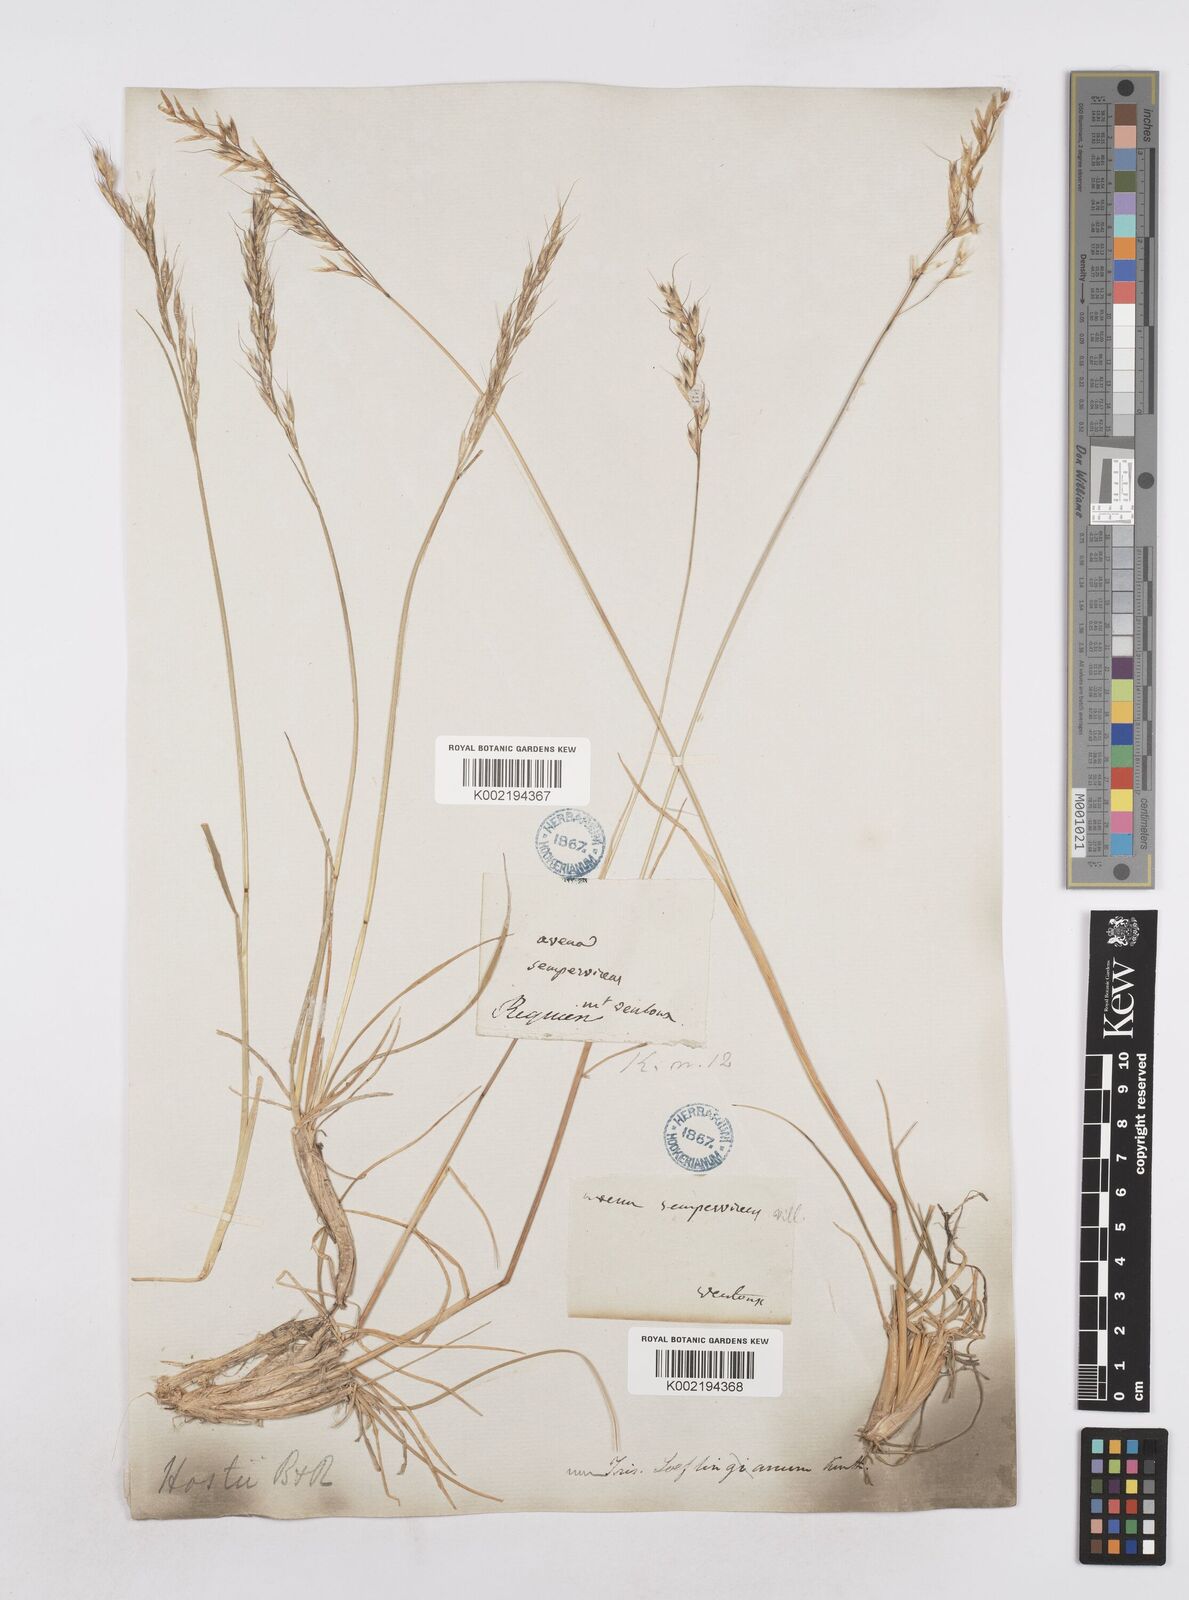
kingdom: Plantae
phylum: Tracheophyta
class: Liliopsida
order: Poales
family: Poaceae
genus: Helictotrichon
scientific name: Helictotrichon parlatorei
